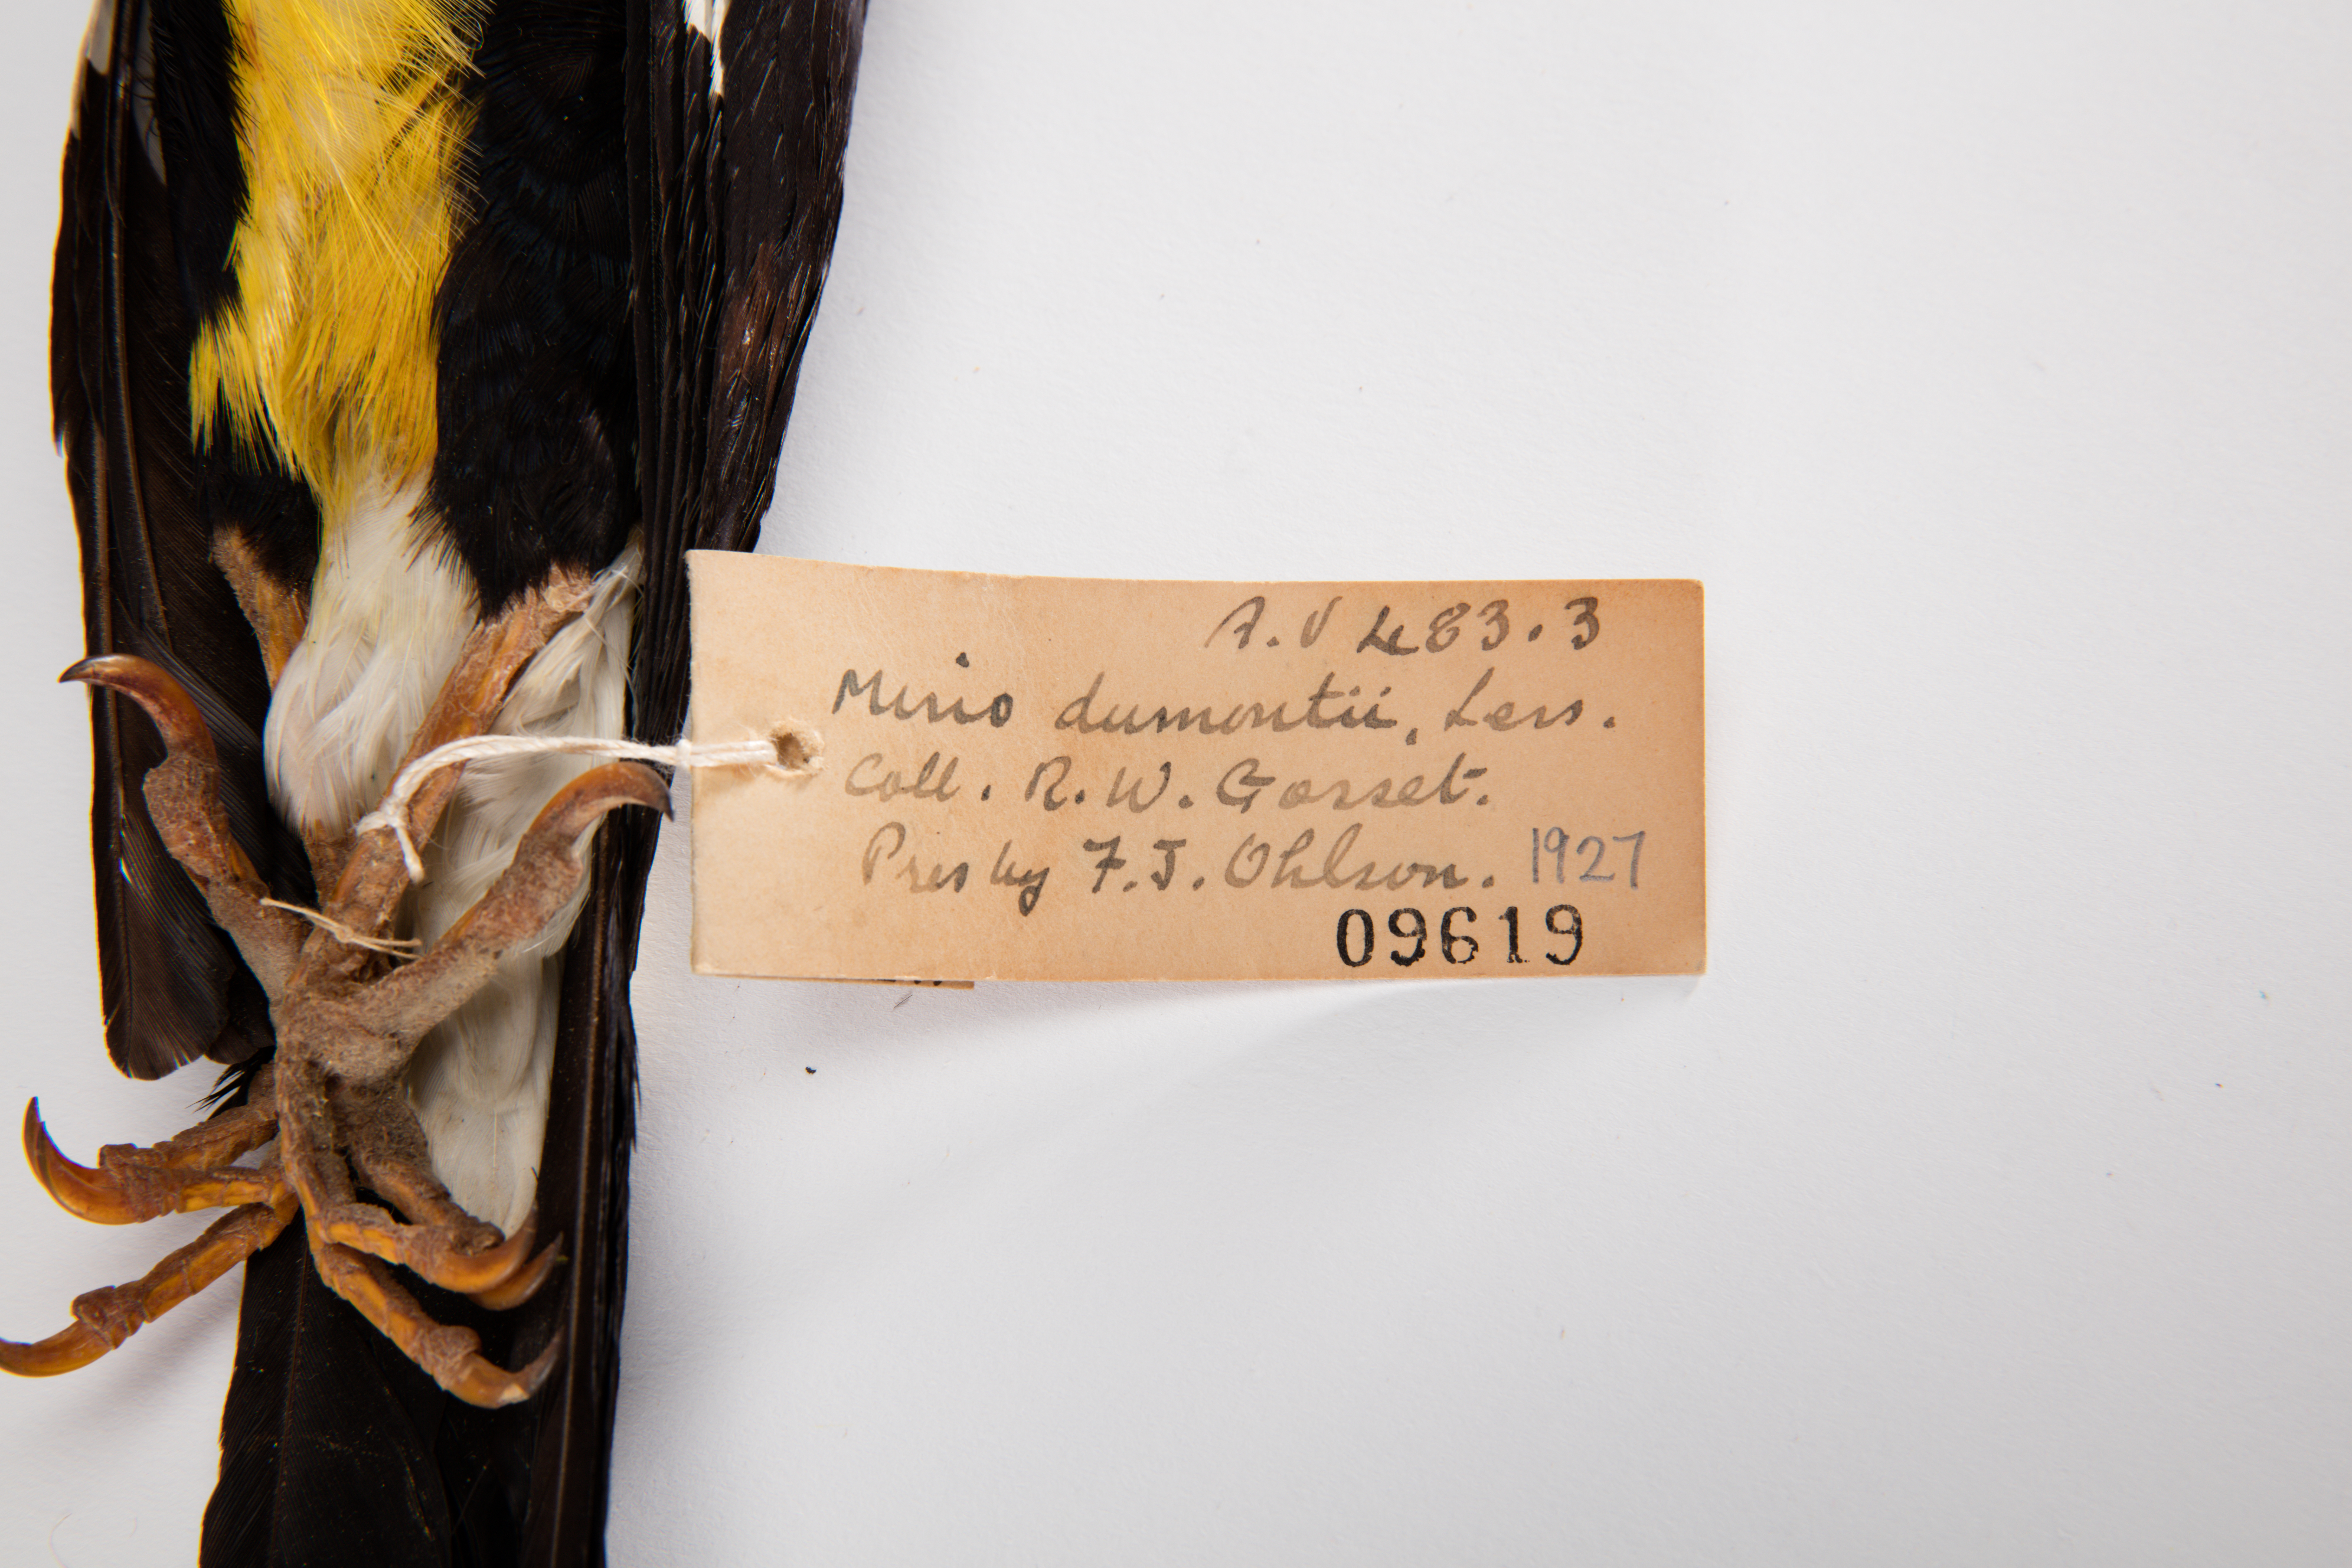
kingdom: Animalia
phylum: Chordata
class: Aves
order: Passeriformes
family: Sturnidae
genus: Mino
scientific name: Mino dumontii
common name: Yellow-faced myna
